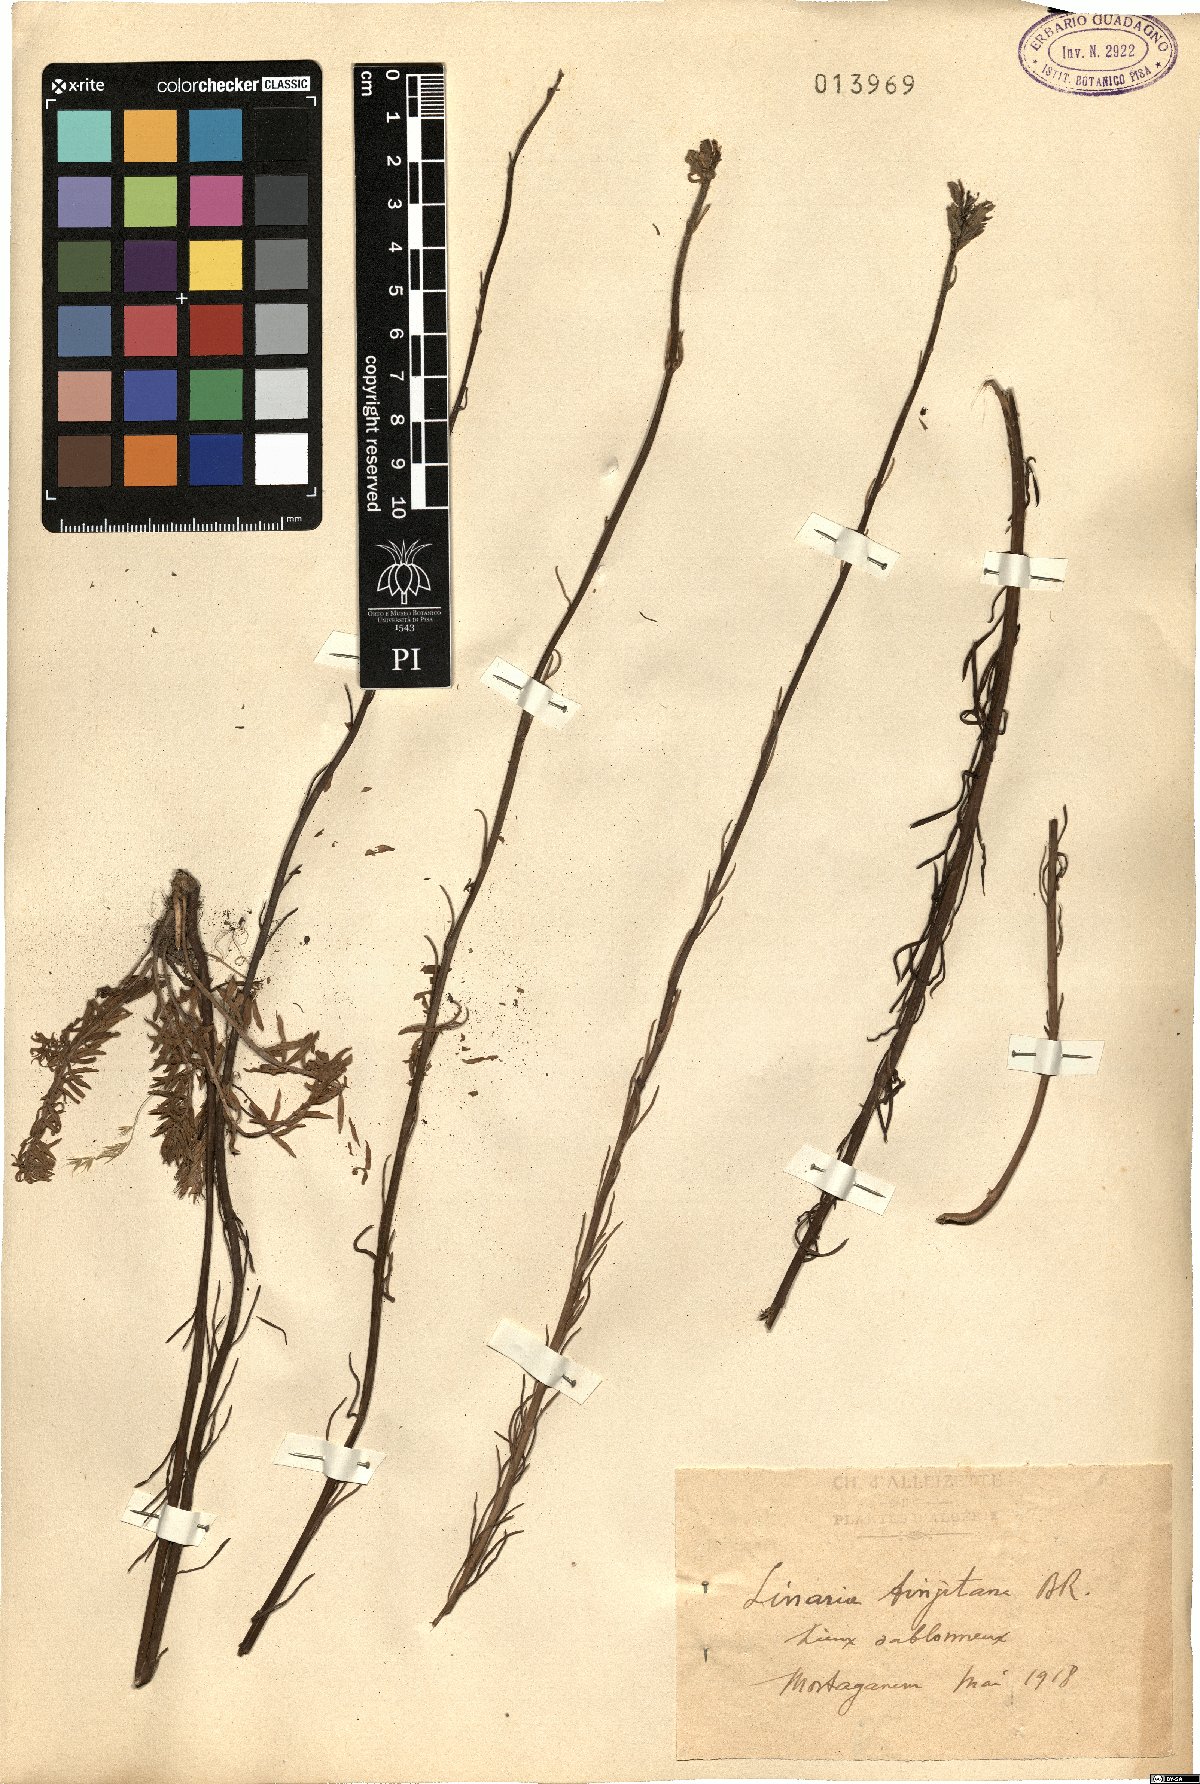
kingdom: Plantae
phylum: Tracheophyta
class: Magnoliopsida
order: Lamiales
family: Plantaginaceae
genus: Linaria
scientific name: Linaria tingitana
